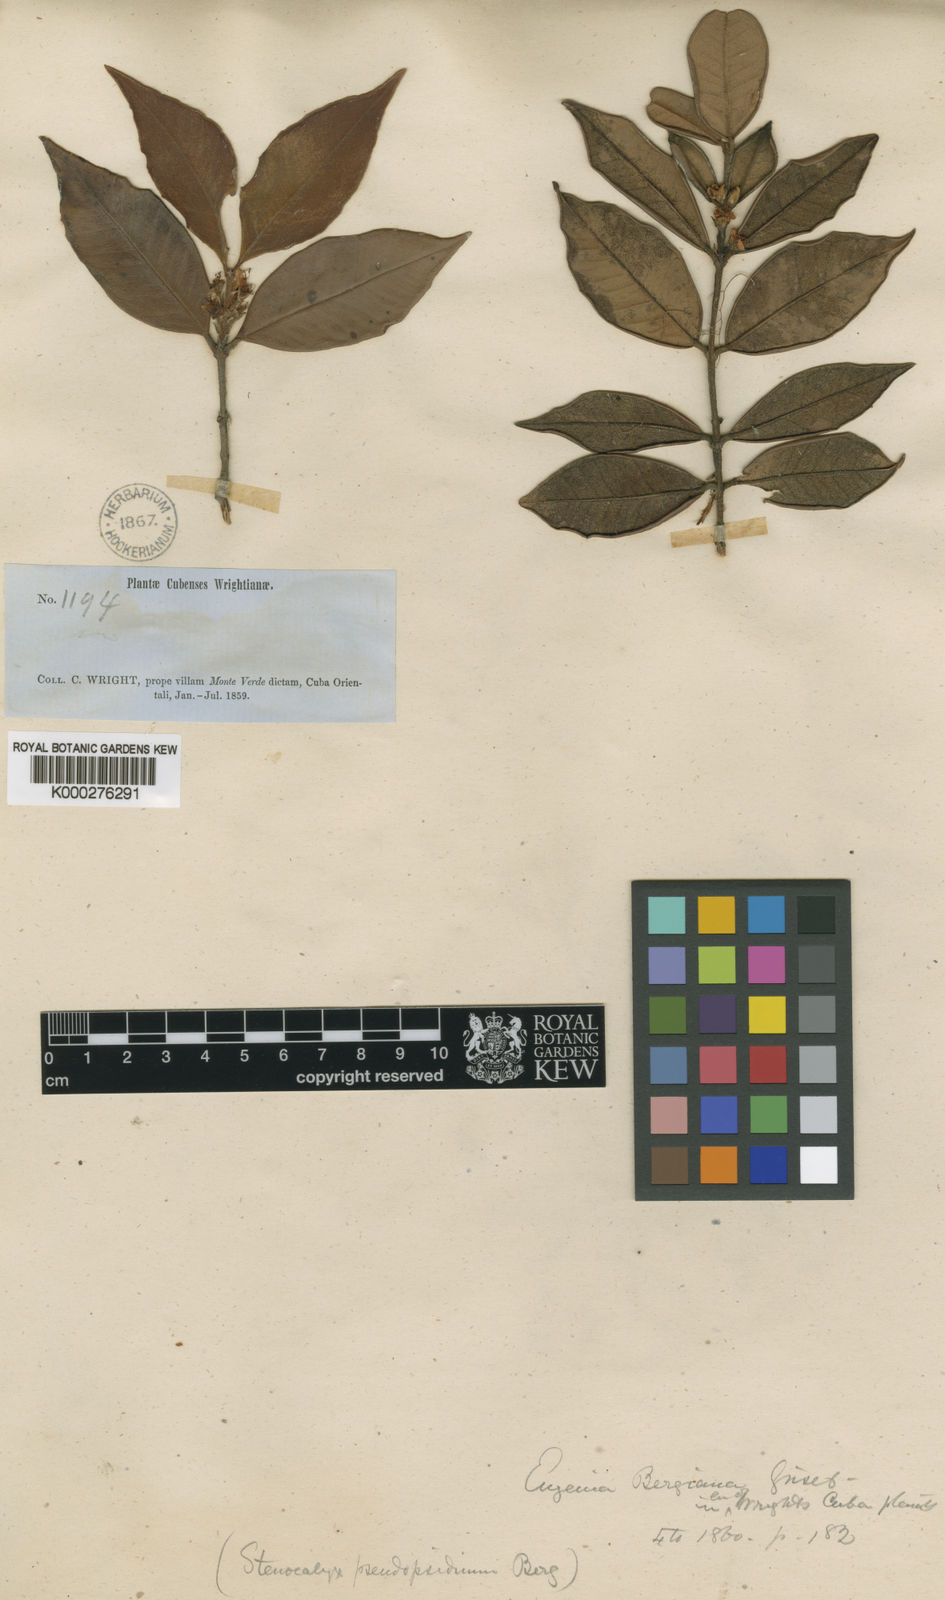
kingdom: Plantae
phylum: Tracheophyta
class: Magnoliopsida
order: Myrtales
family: Myrtaceae
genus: Eugenia
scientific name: Eugenia lineata
